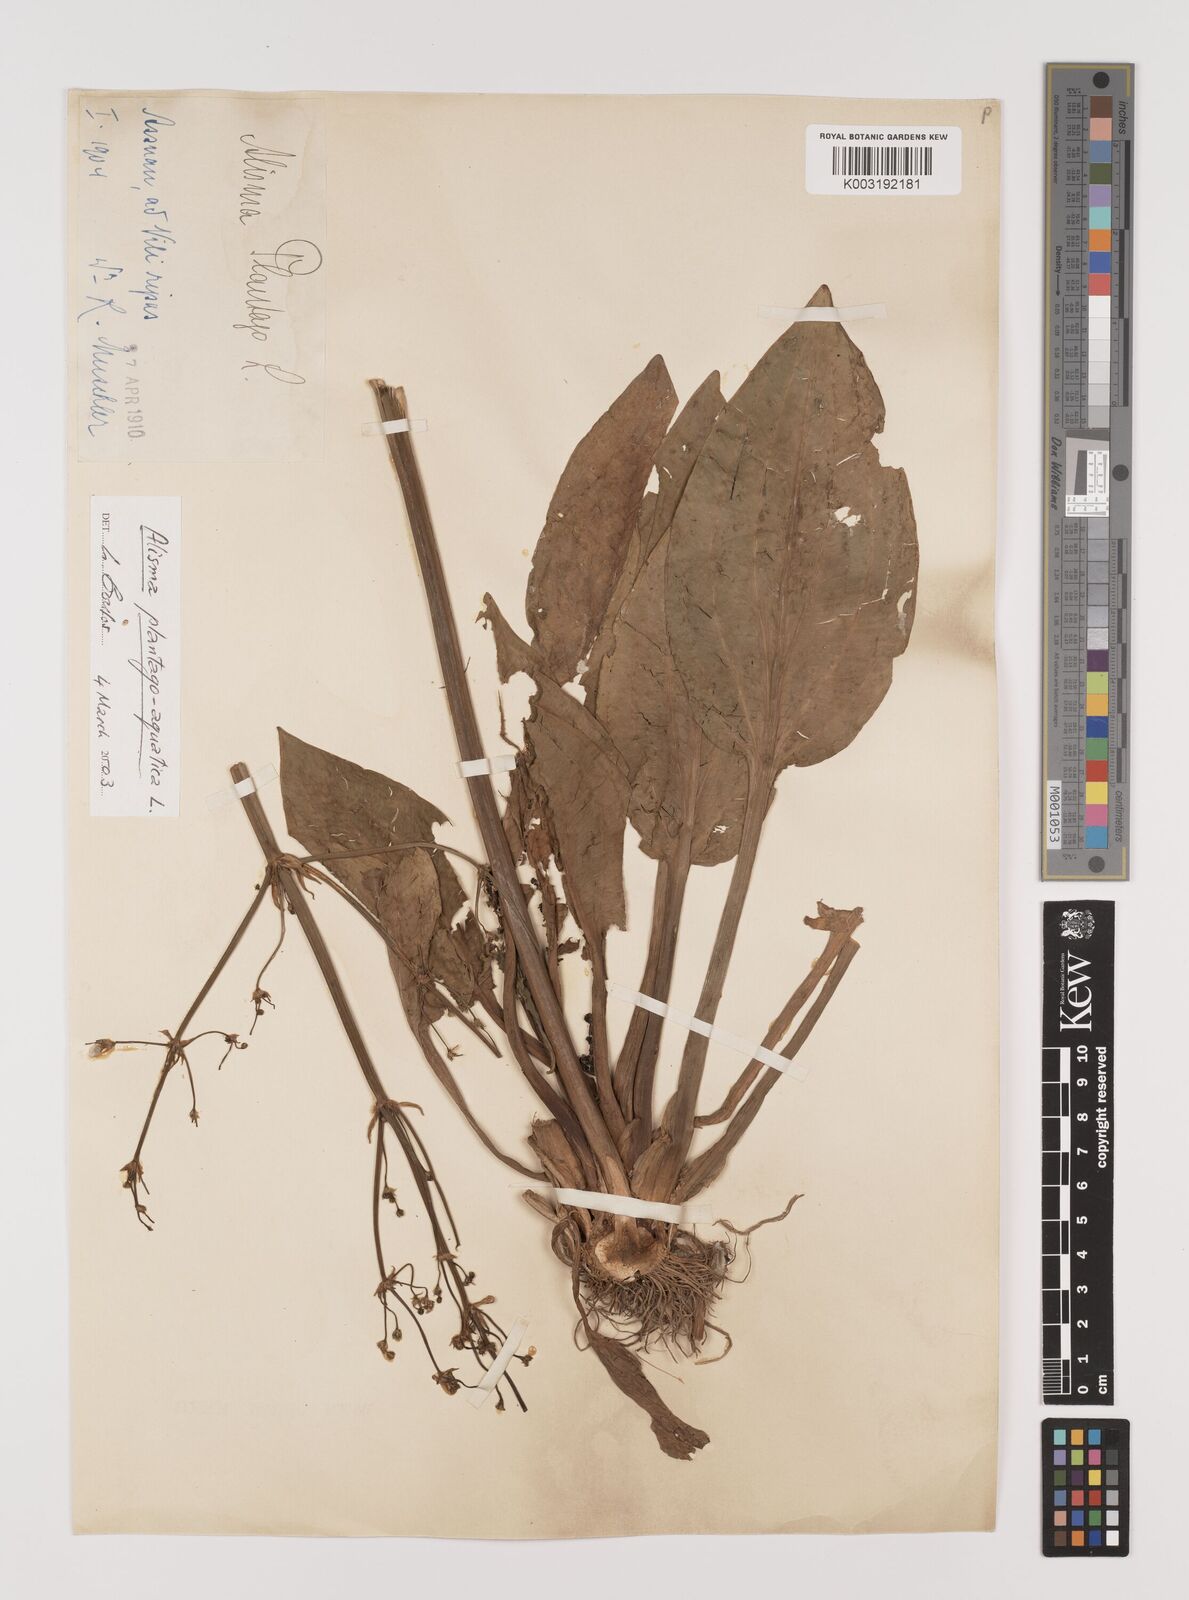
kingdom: Plantae
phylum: Tracheophyta
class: Liliopsida
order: Alismatales
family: Alismataceae
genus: Alisma
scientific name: Alisma plantago-aquatica
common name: Water-plantain
